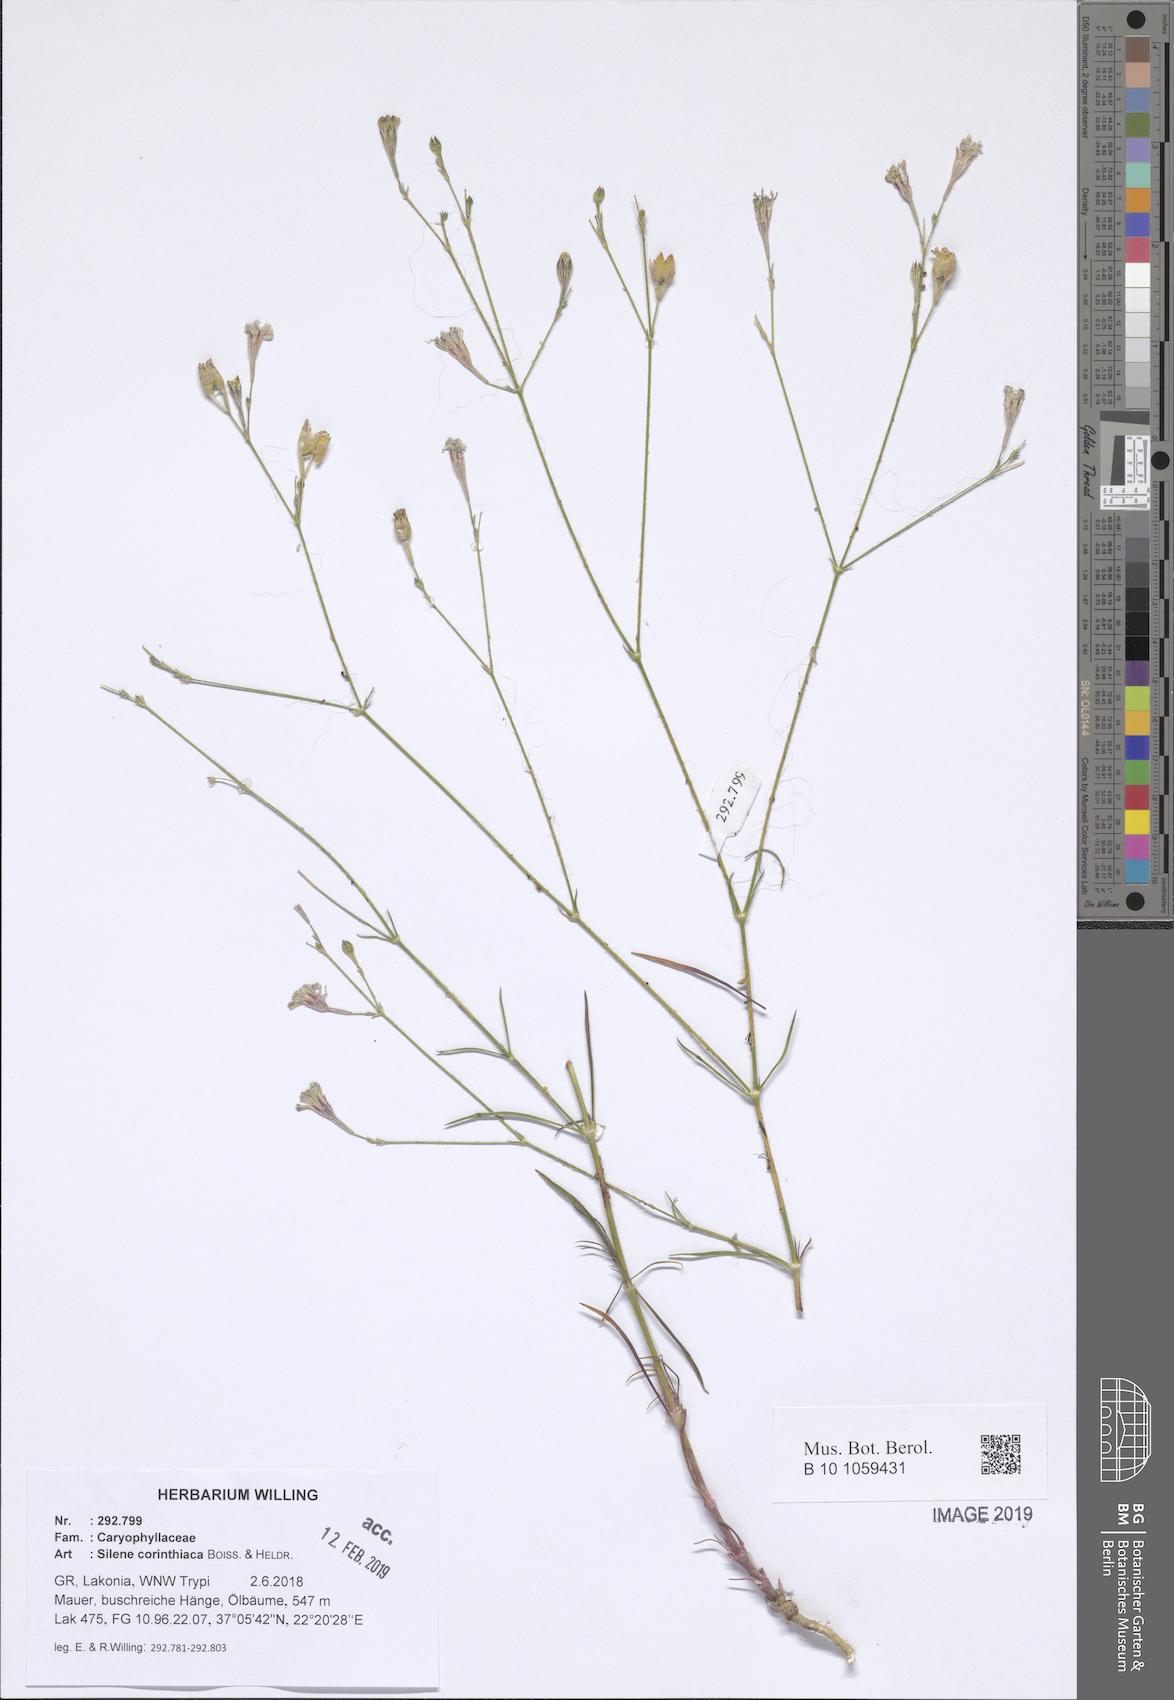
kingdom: Plantae
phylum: Tracheophyta
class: Magnoliopsida
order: Caryophyllales
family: Caryophyllaceae
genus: Silene
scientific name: Silene corinthiaca
